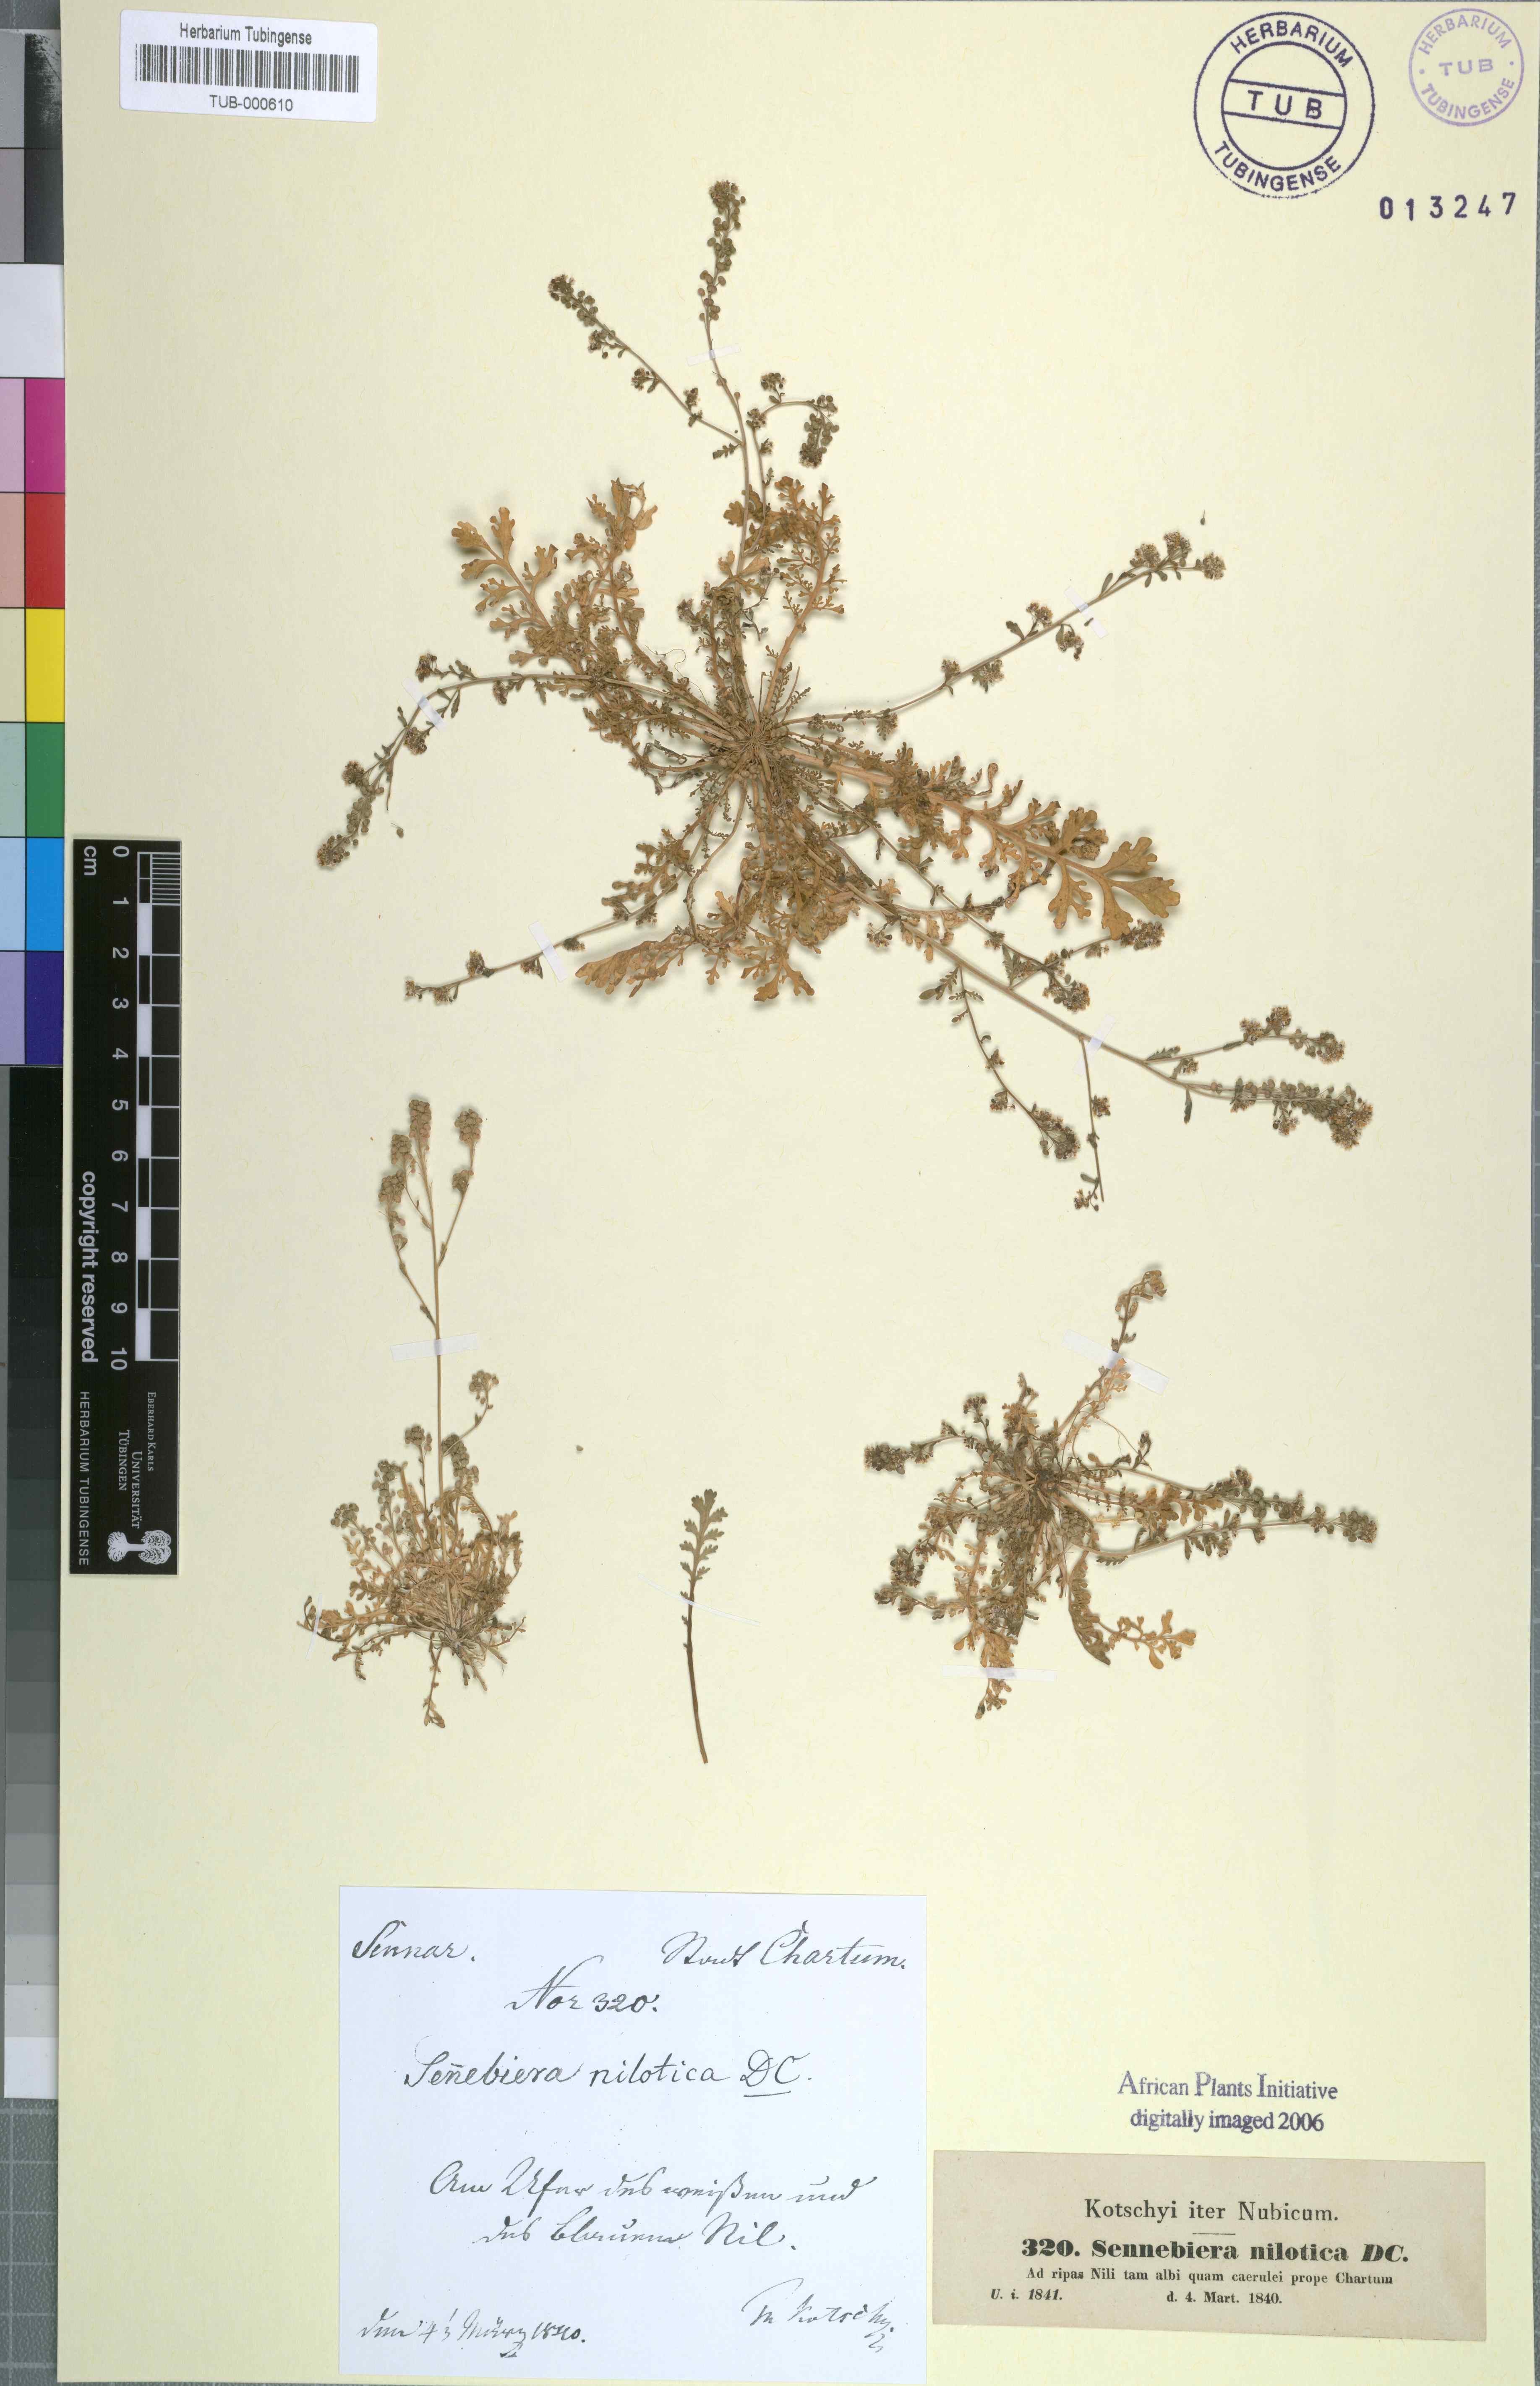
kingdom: Plantae
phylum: Tracheophyta
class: Magnoliopsida
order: Brassicales
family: Brassicaceae
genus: Lepidium
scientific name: Lepidium niloticum
